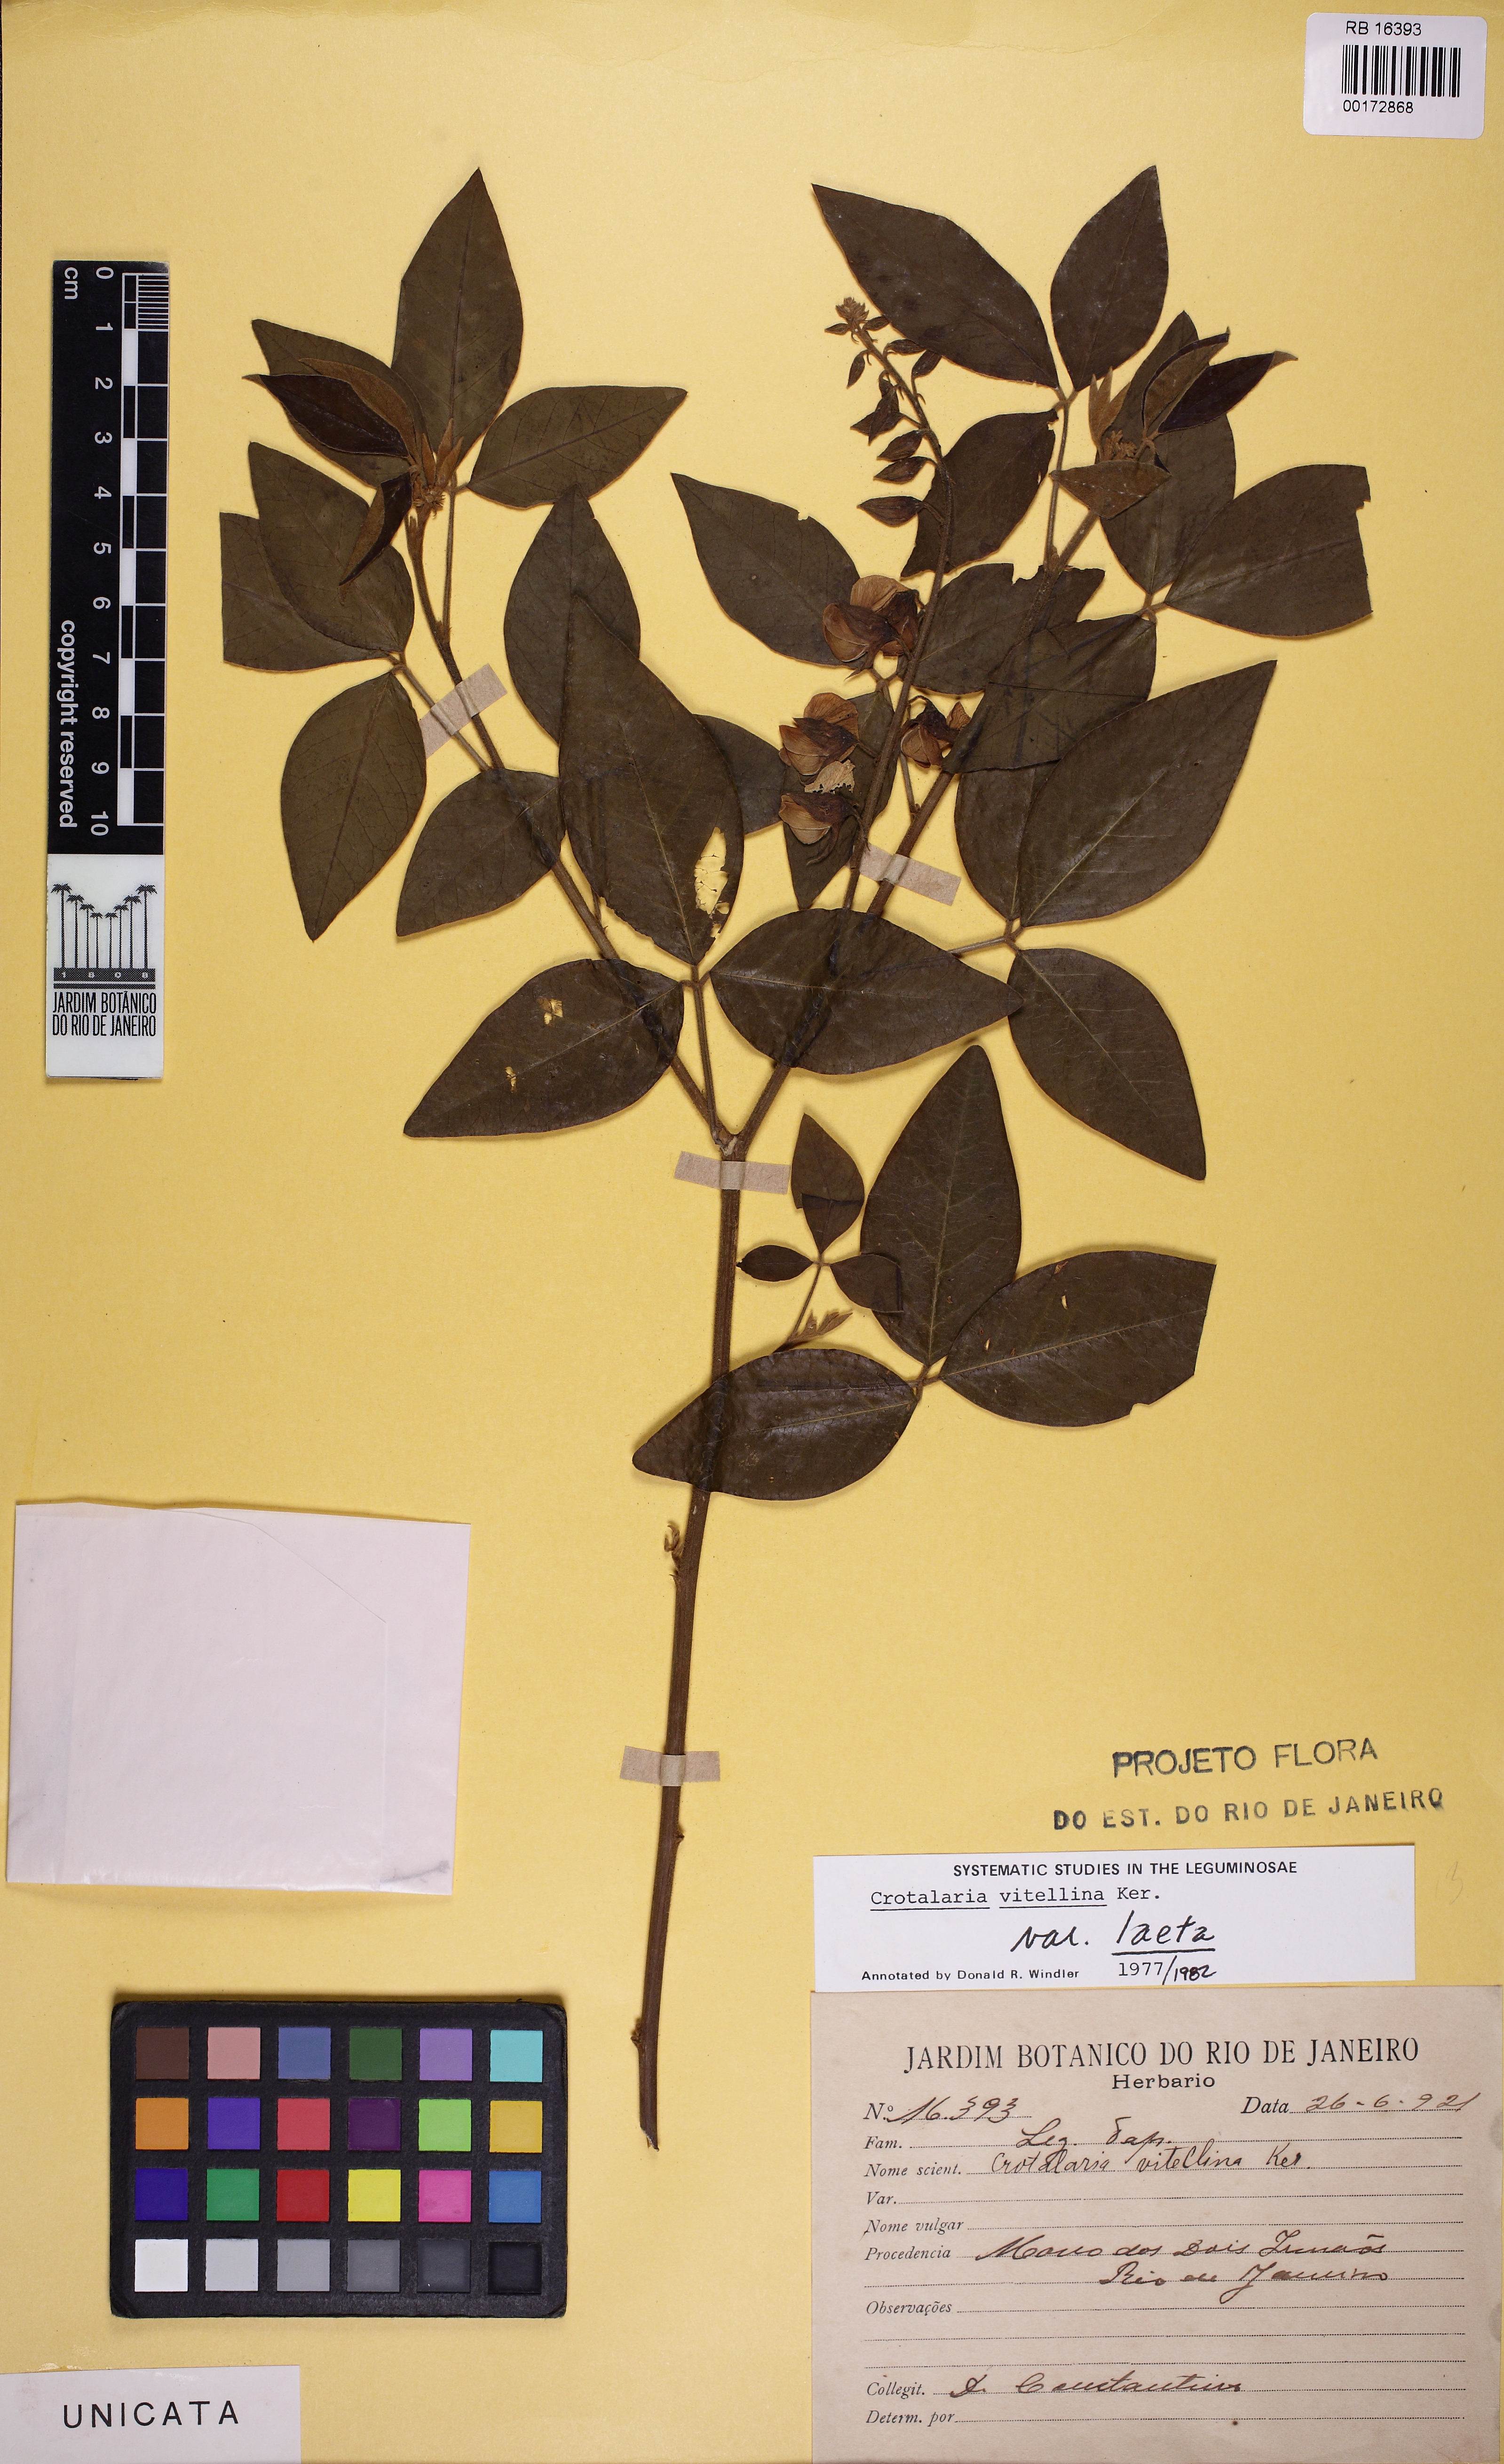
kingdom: Plantae
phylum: Tracheophyta
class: Magnoliopsida
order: Fabales
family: Fabaceae
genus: Crotalaria
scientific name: Crotalaria vitellina
